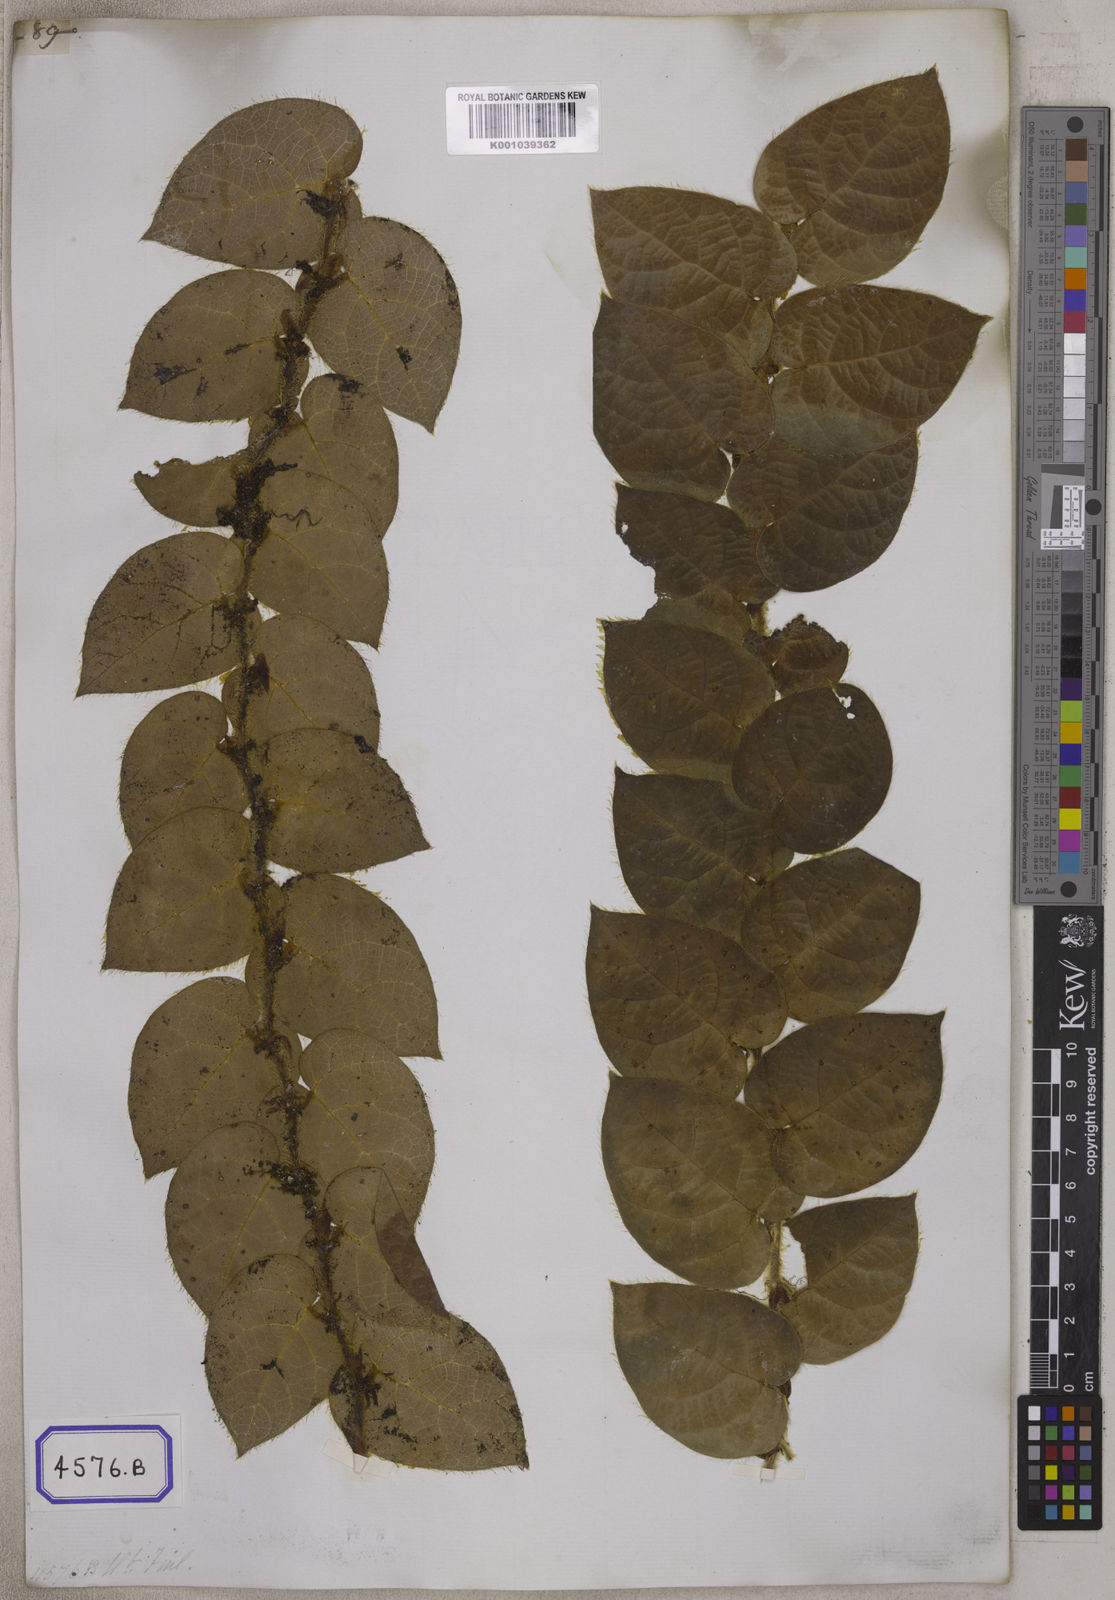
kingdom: Plantae
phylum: Tracheophyta
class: Magnoliopsida
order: Rosales
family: Moraceae
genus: Ficus
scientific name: Ficus
